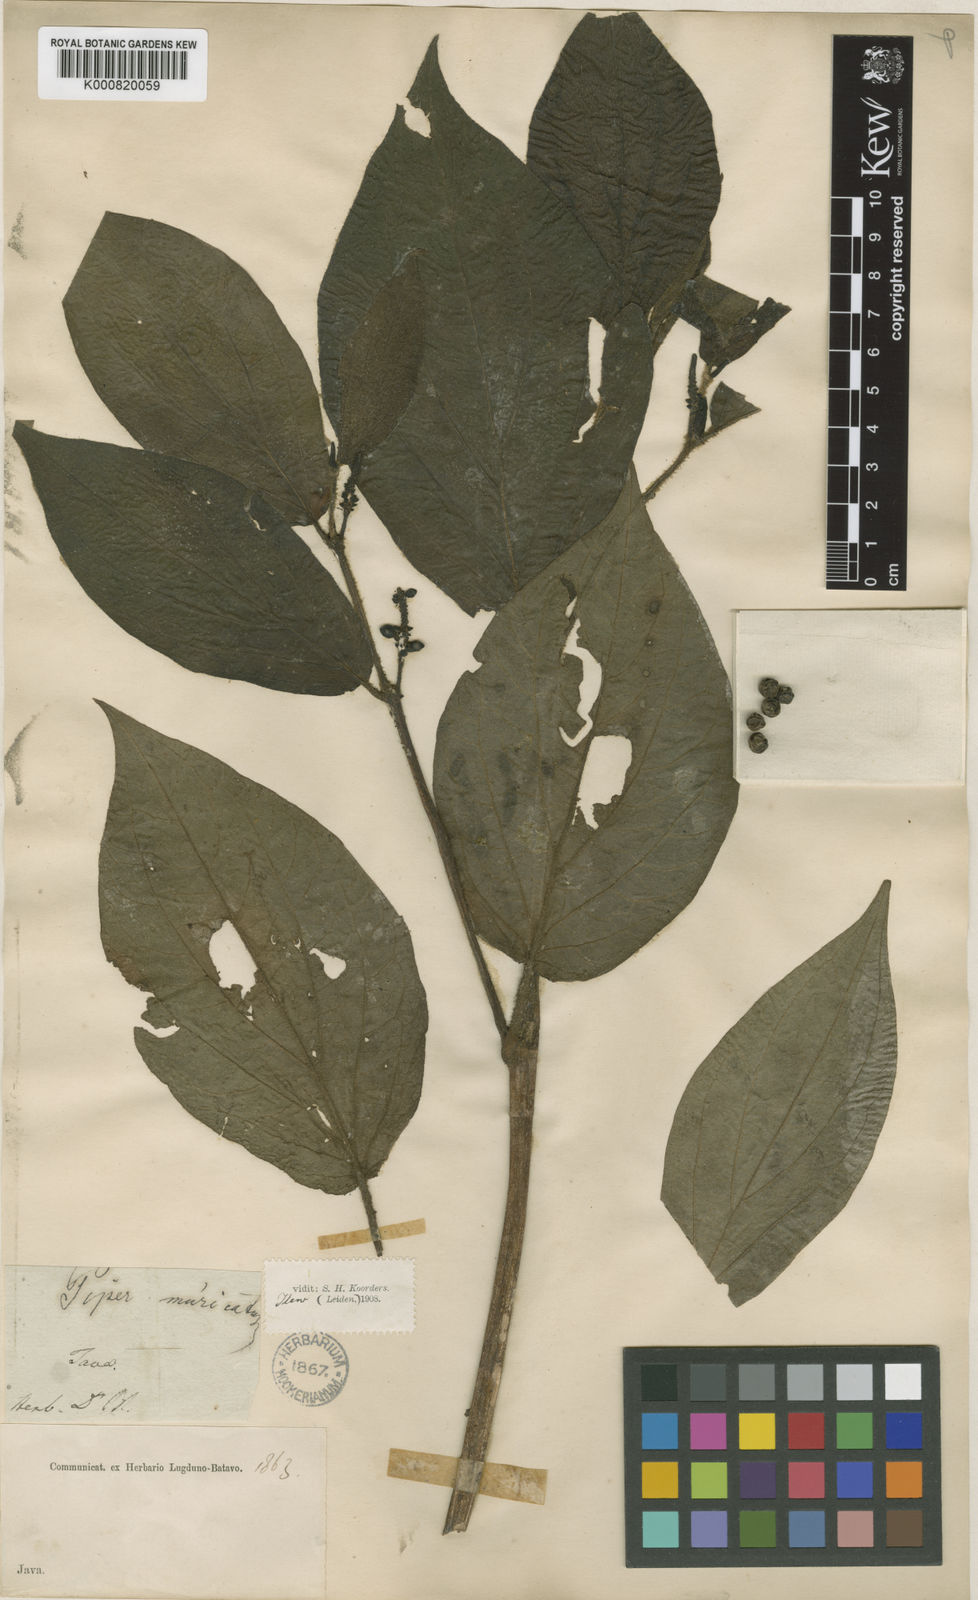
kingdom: Plantae
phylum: Tracheophyta
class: Magnoliopsida
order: Piperales
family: Piperaceae
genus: Piper
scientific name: Piper muricatum
